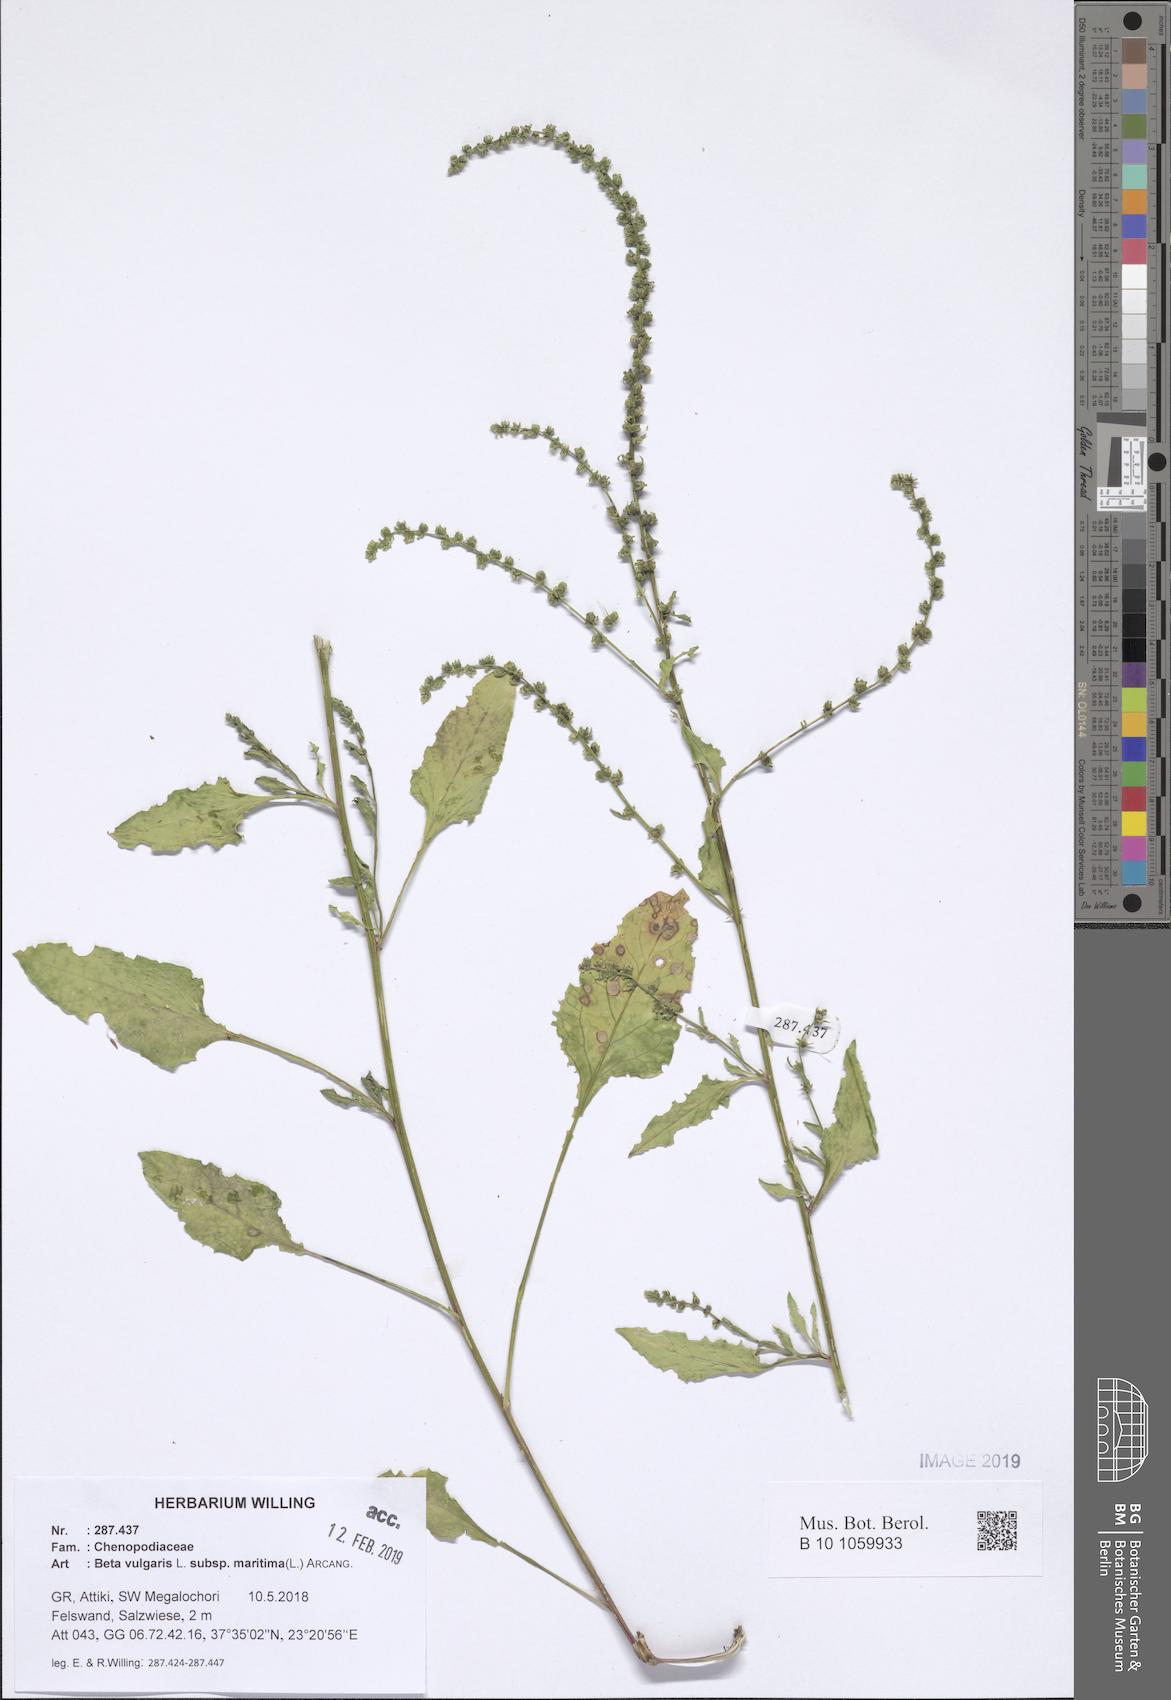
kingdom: Plantae
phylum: Tracheophyta
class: Magnoliopsida
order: Caryophyllales
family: Amaranthaceae
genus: Beta
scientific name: Beta maritima
